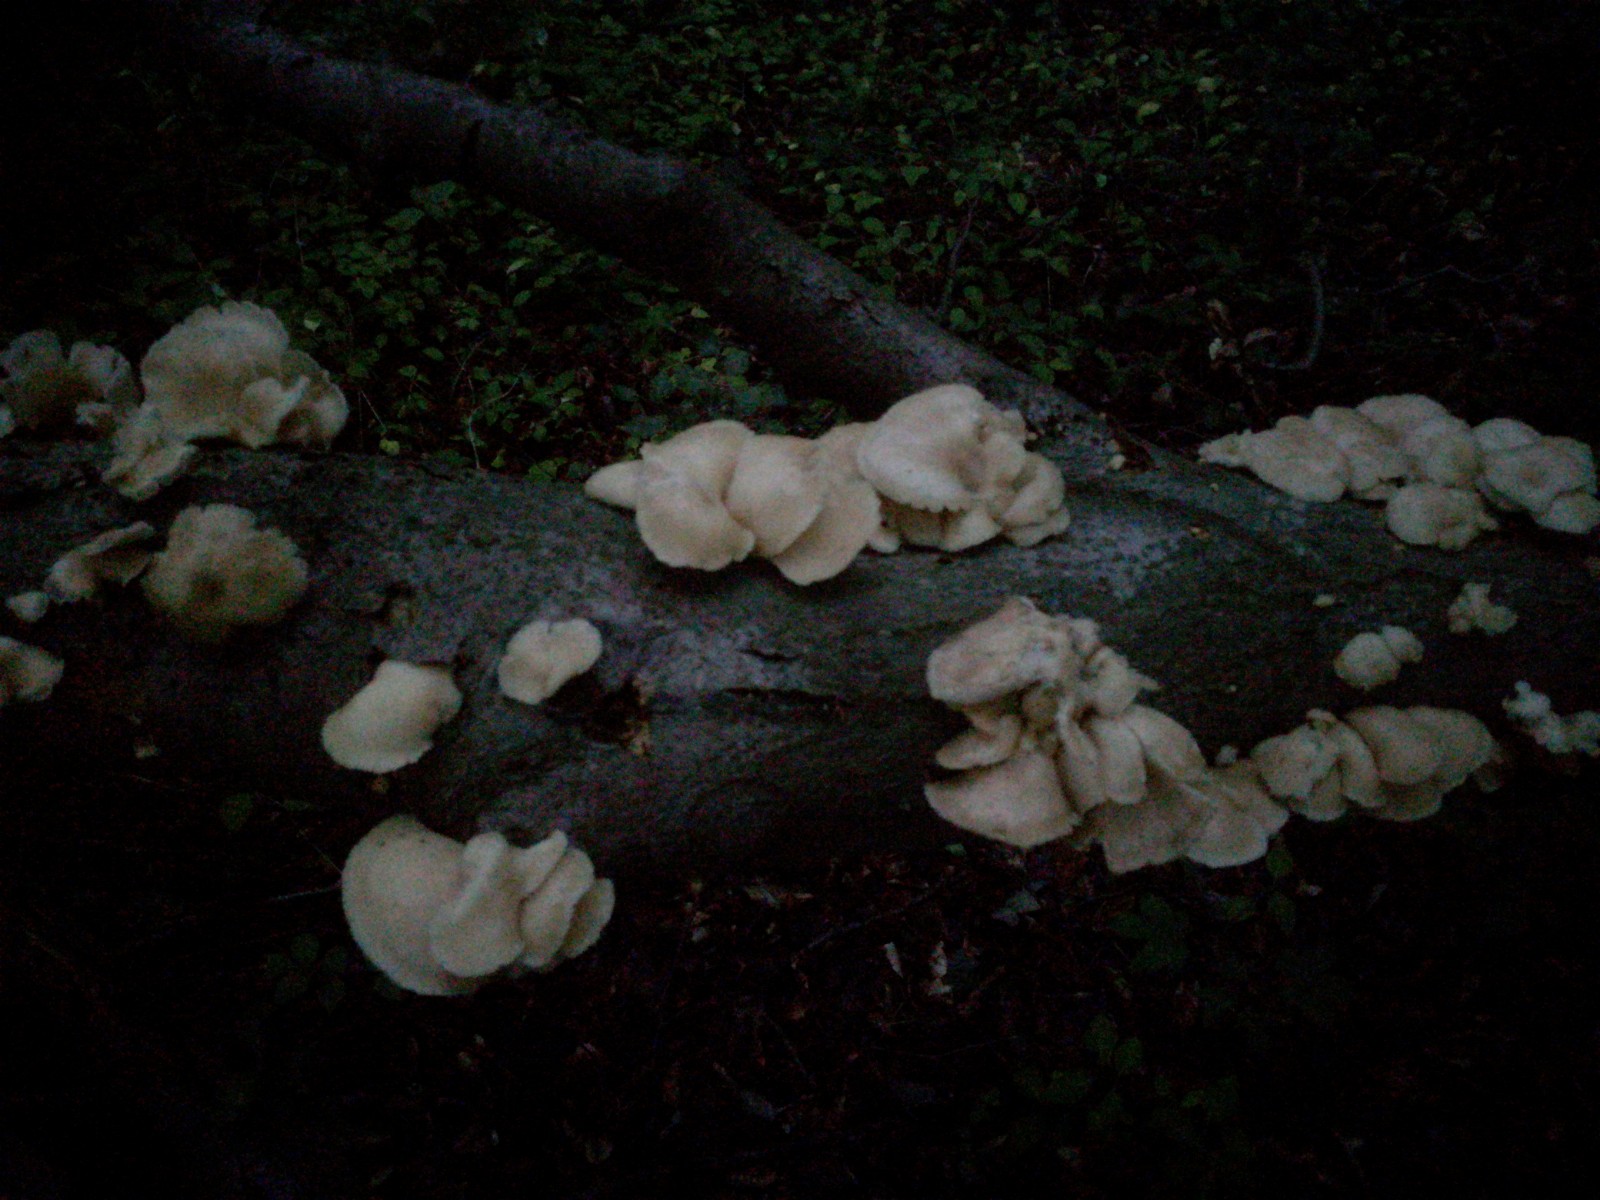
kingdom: Fungi
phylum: Basidiomycota
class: Agaricomycetes
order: Agaricales
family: Pleurotaceae
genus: Pleurotus
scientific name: Pleurotus pulmonarius
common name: sommer-østershat
